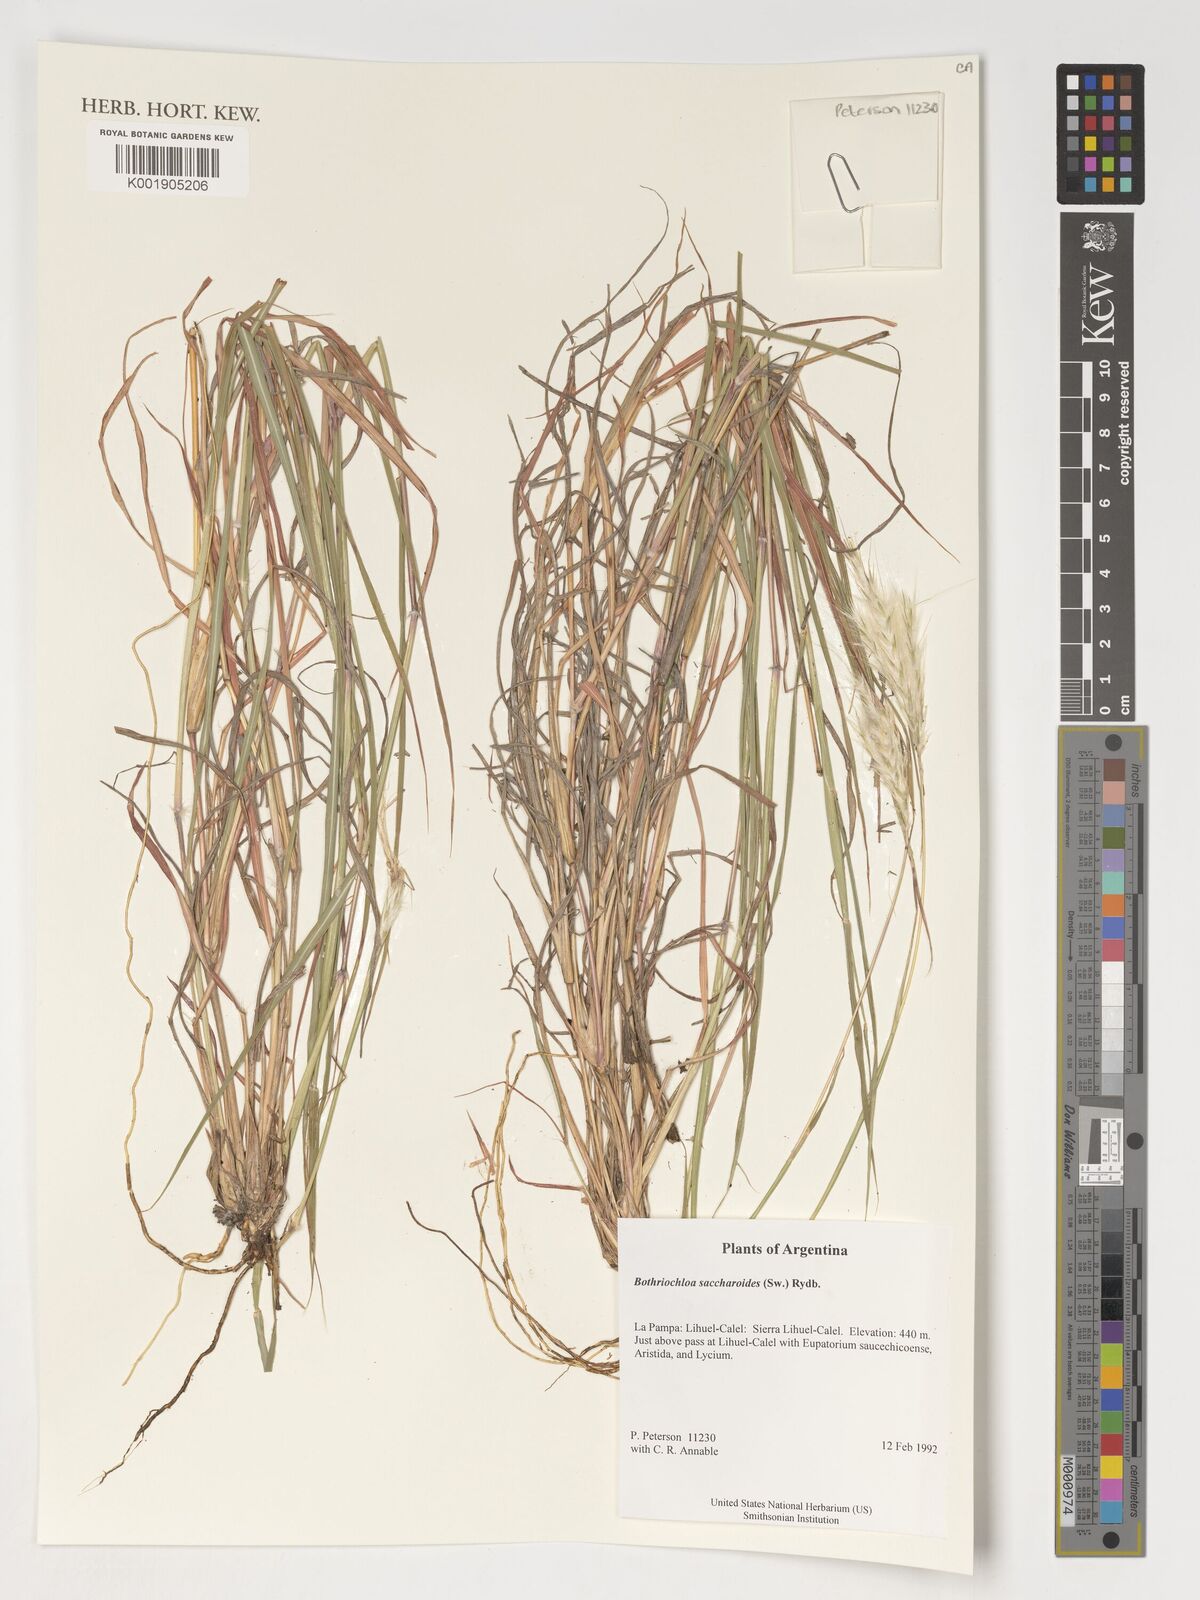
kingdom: Plantae
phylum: Tracheophyta
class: Liliopsida
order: Poales
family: Poaceae
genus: Bothriochloa
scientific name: Bothriochloa saccharoides
